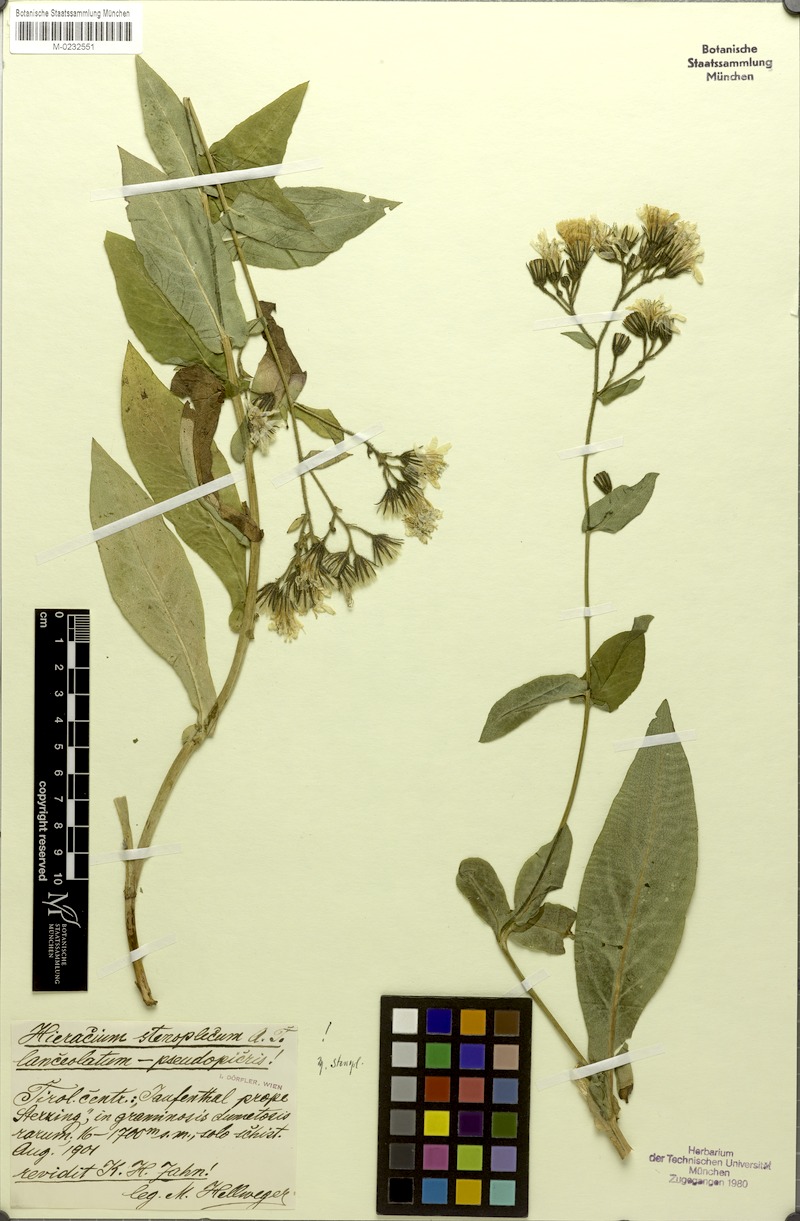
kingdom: Plantae
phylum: Tracheophyta
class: Magnoliopsida
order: Asterales
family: Asteraceae
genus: Hieracium
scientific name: Hieracium stenoplecum
